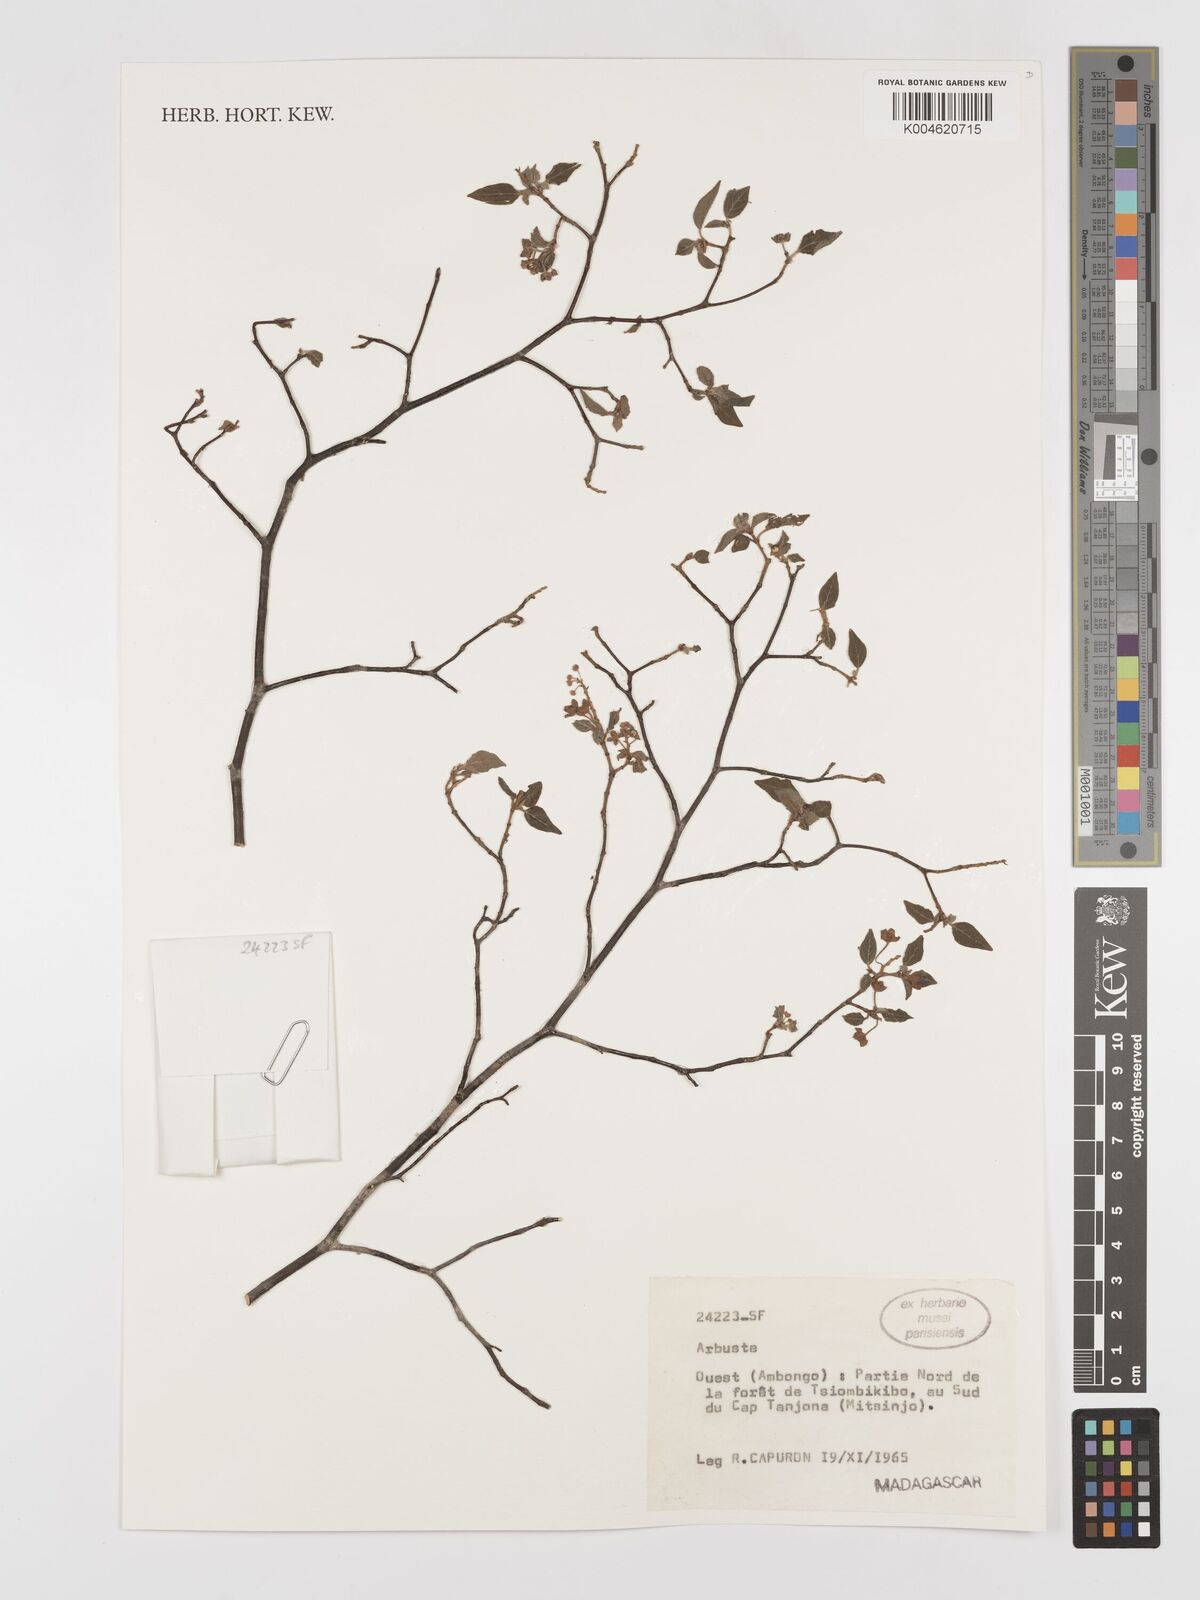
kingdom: Plantae
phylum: Tracheophyta
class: Magnoliopsida
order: Malpighiales
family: Euphorbiaceae
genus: Croton
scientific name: Croton
